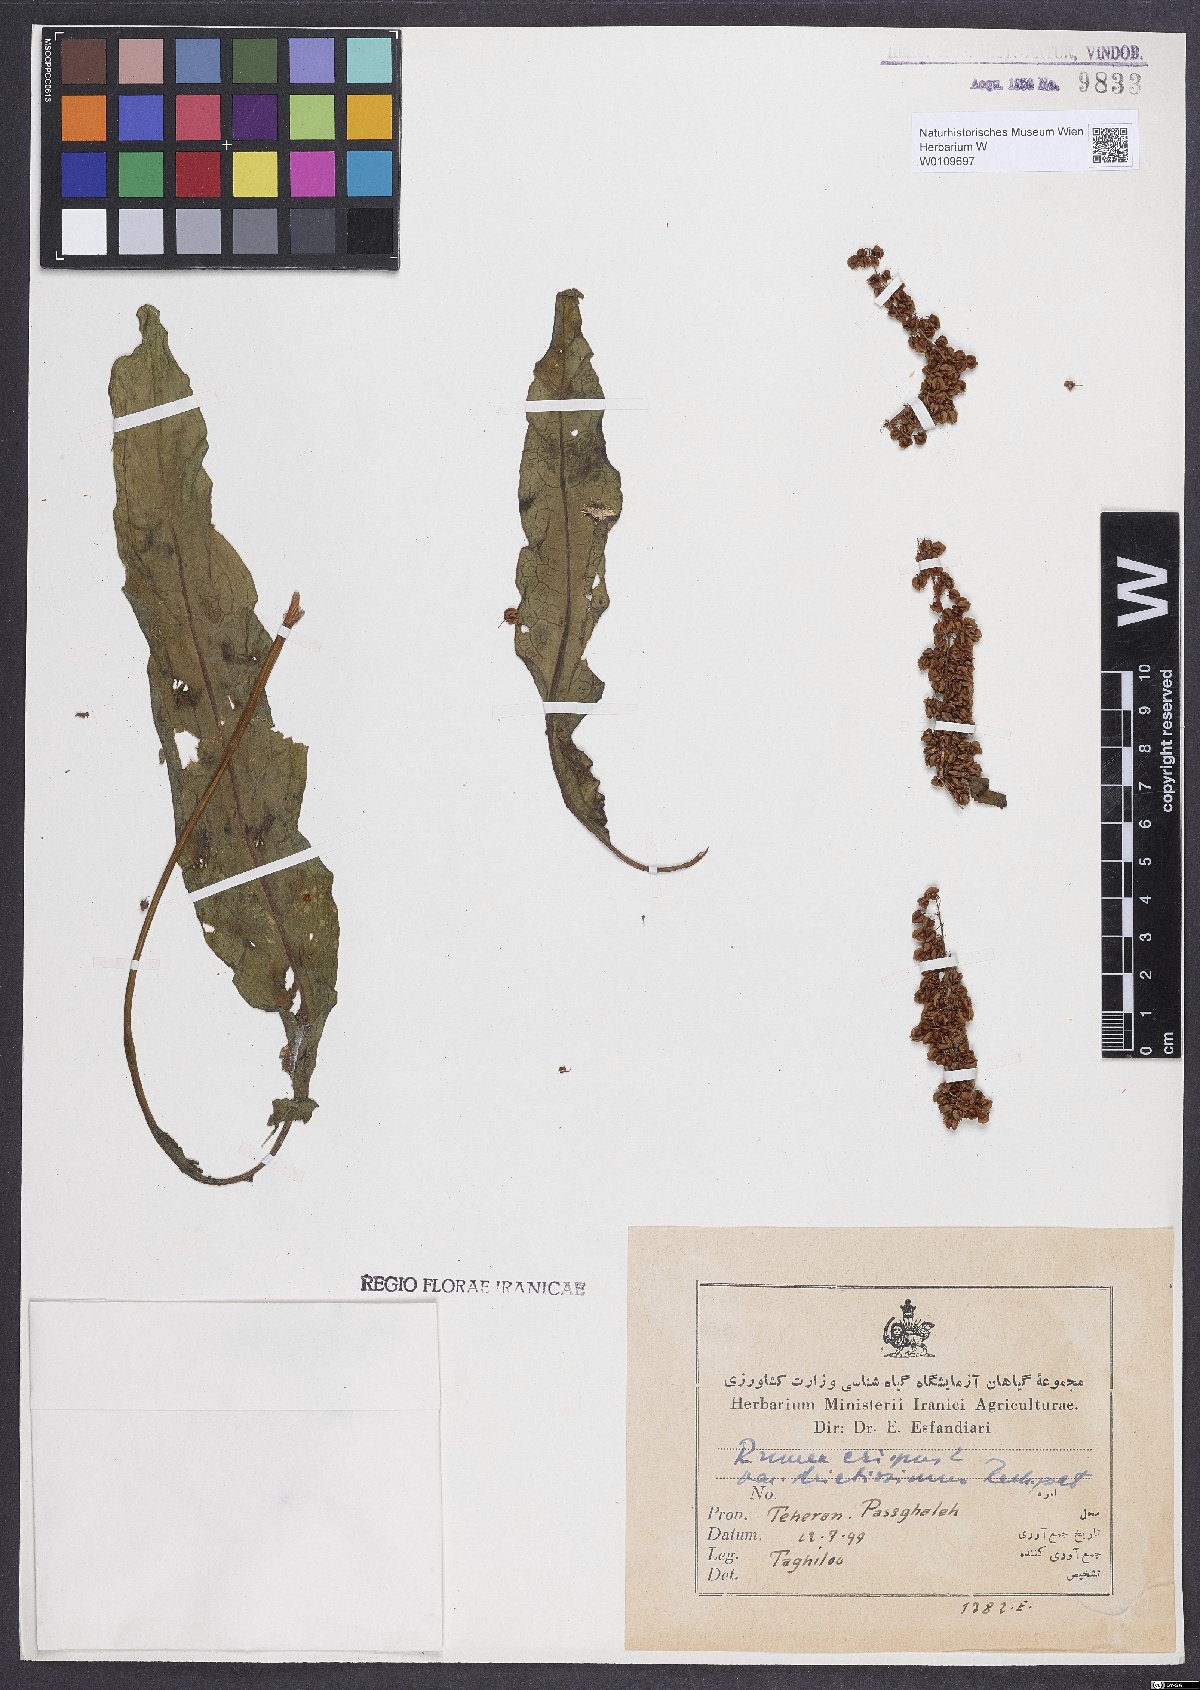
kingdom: Plantae
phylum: Tracheophyta
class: Magnoliopsida
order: Caryophyllales
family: Polygonaceae
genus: Rumex
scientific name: Rumex crispus
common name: Curled dock
